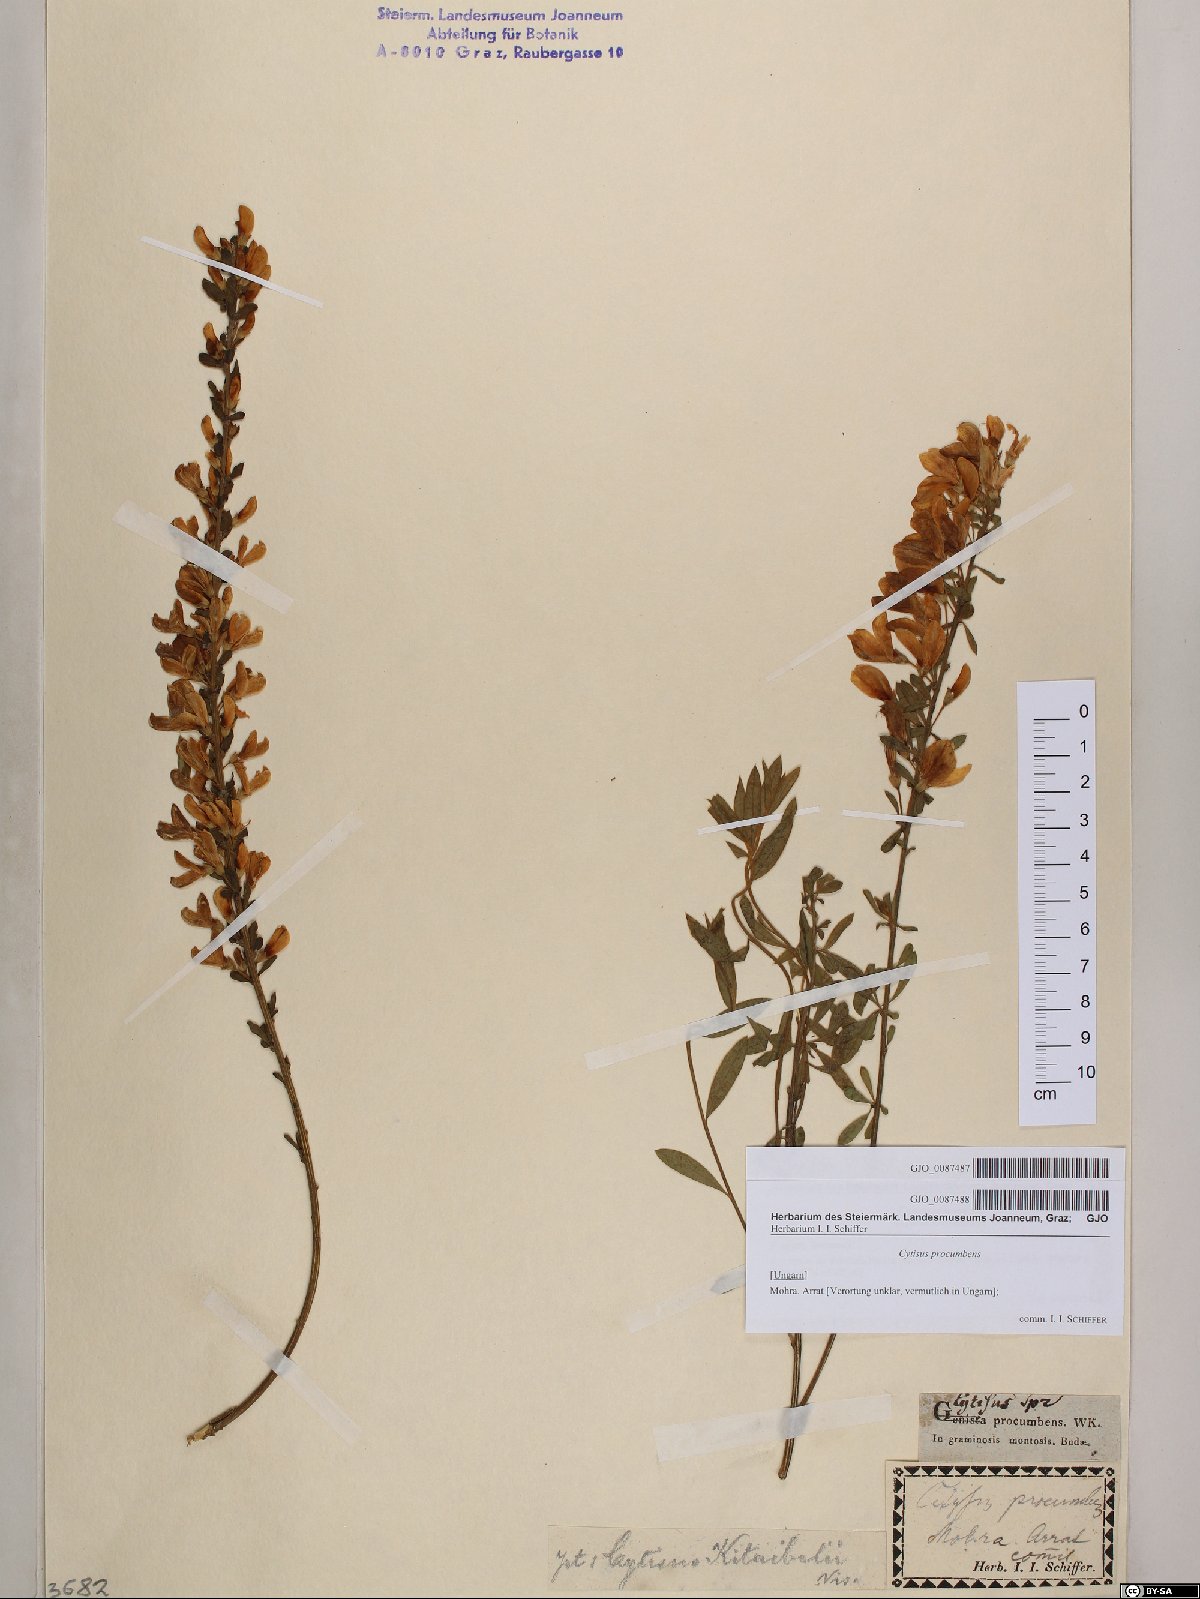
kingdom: Plantae
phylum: Tracheophyta
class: Magnoliopsida
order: Fabales
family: Fabaceae
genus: Cytisus
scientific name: Cytisus procumbens
